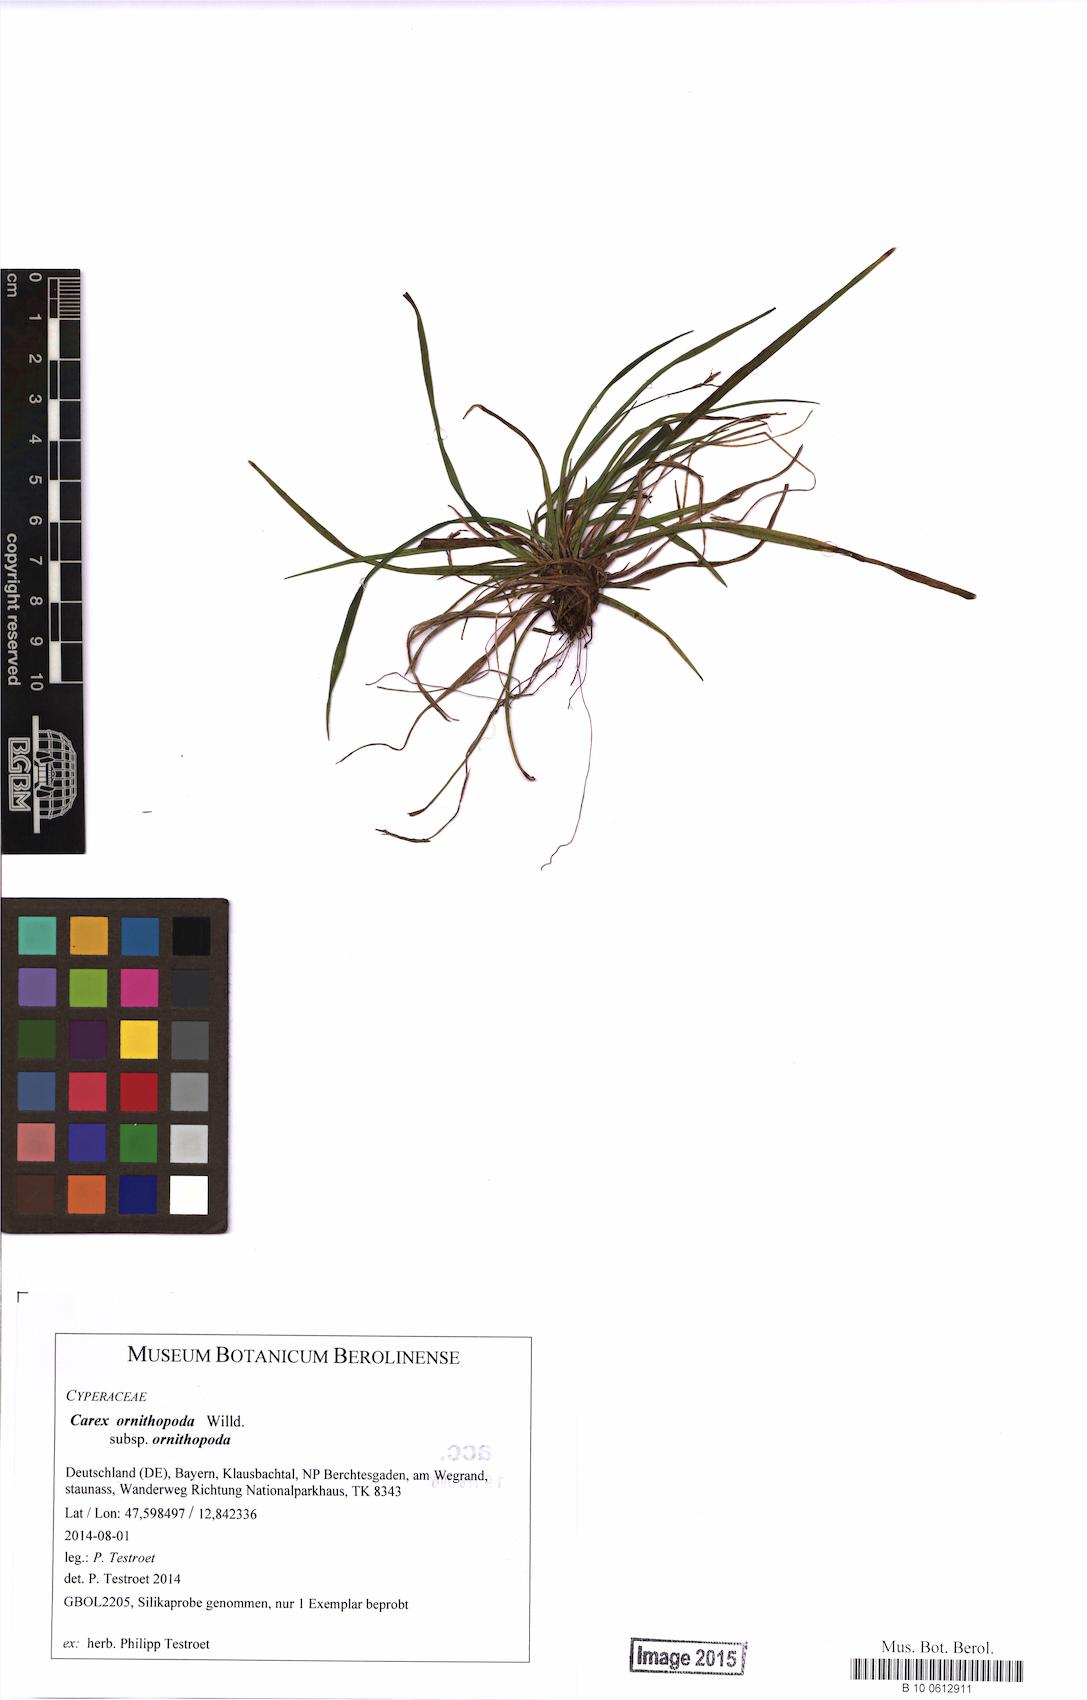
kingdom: Plantae
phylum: Tracheophyta
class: Liliopsida
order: Poales
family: Cyperaceae
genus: Carex
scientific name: Carex ornithopoda
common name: Bird's-foot sedge
